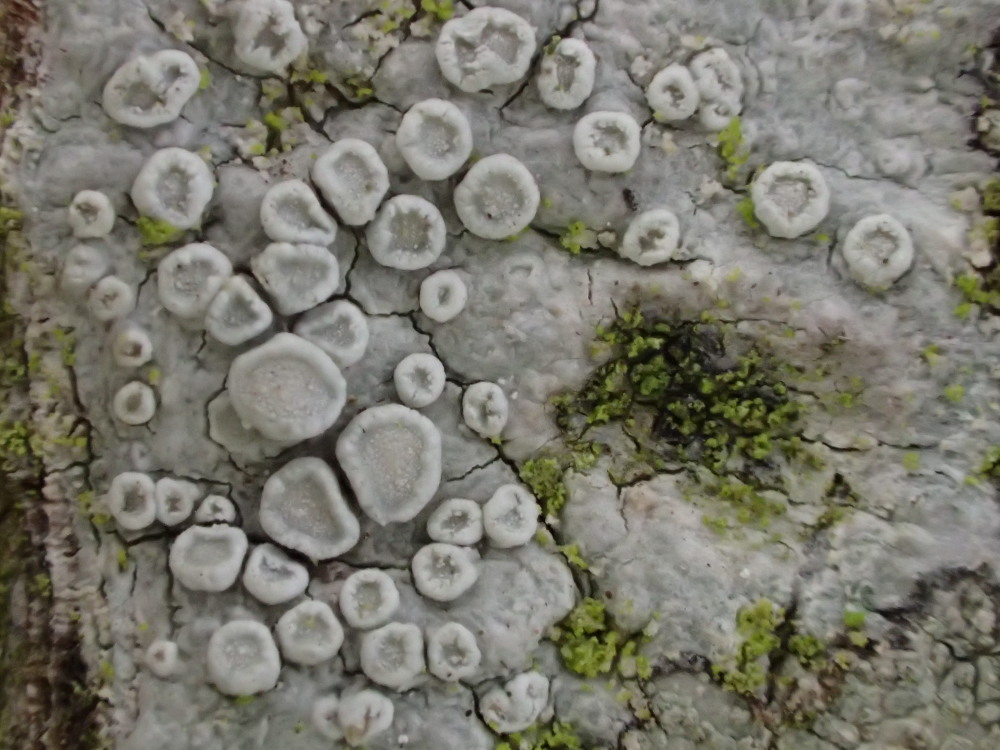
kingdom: Fungi
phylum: Ascomycota
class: Lecanoromycetes
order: Lecanorales
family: Lecanoraceae
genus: Glaucomaria
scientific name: Glaucomaria carpinea
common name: hviddugget kantskivelav
